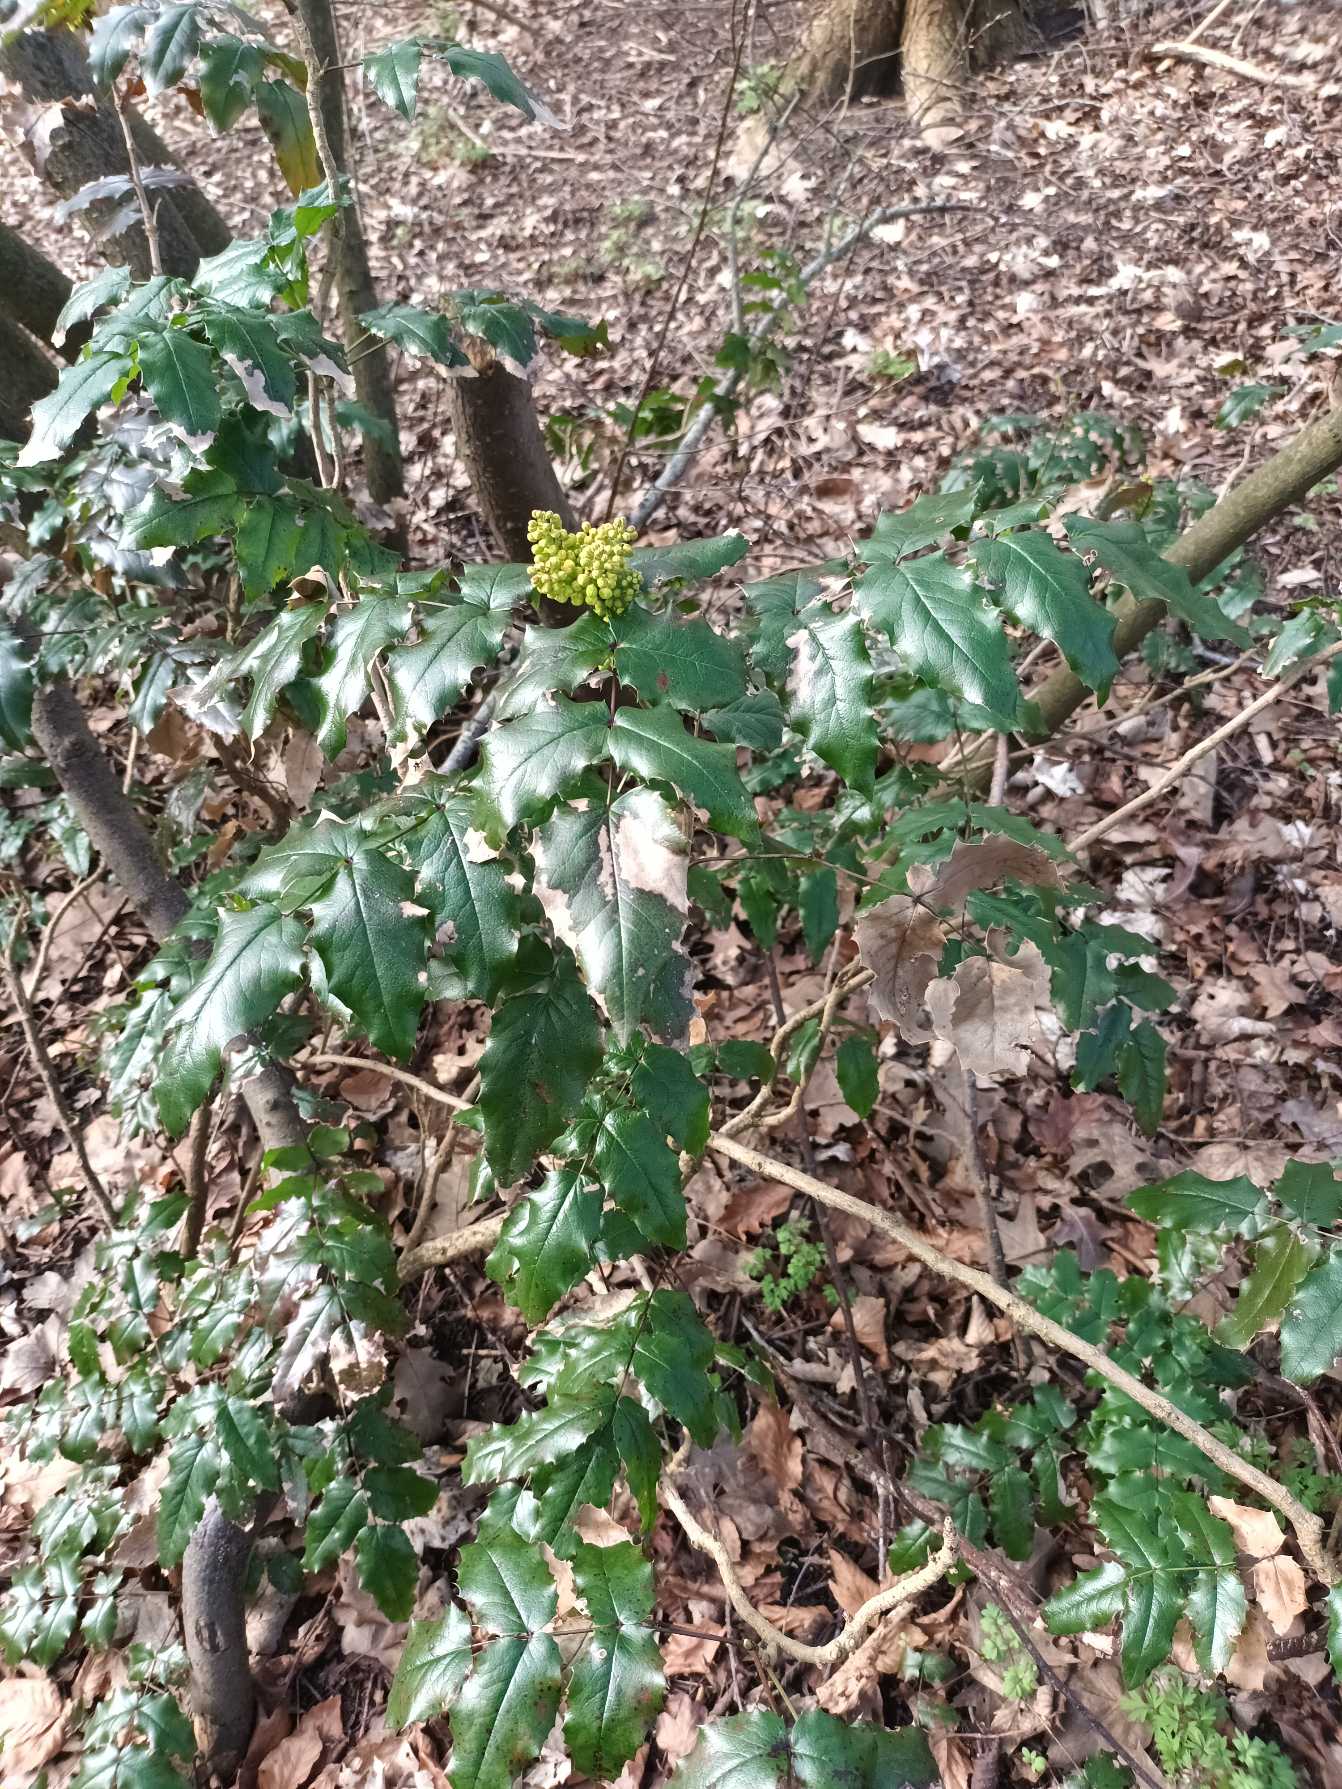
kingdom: Plantae
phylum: Tracheophyta
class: Magnoliopsida
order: Ranunculales
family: Berberidaceae
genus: Mahonia
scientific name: Mahonia aquifolium
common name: Almindelig mahonie
